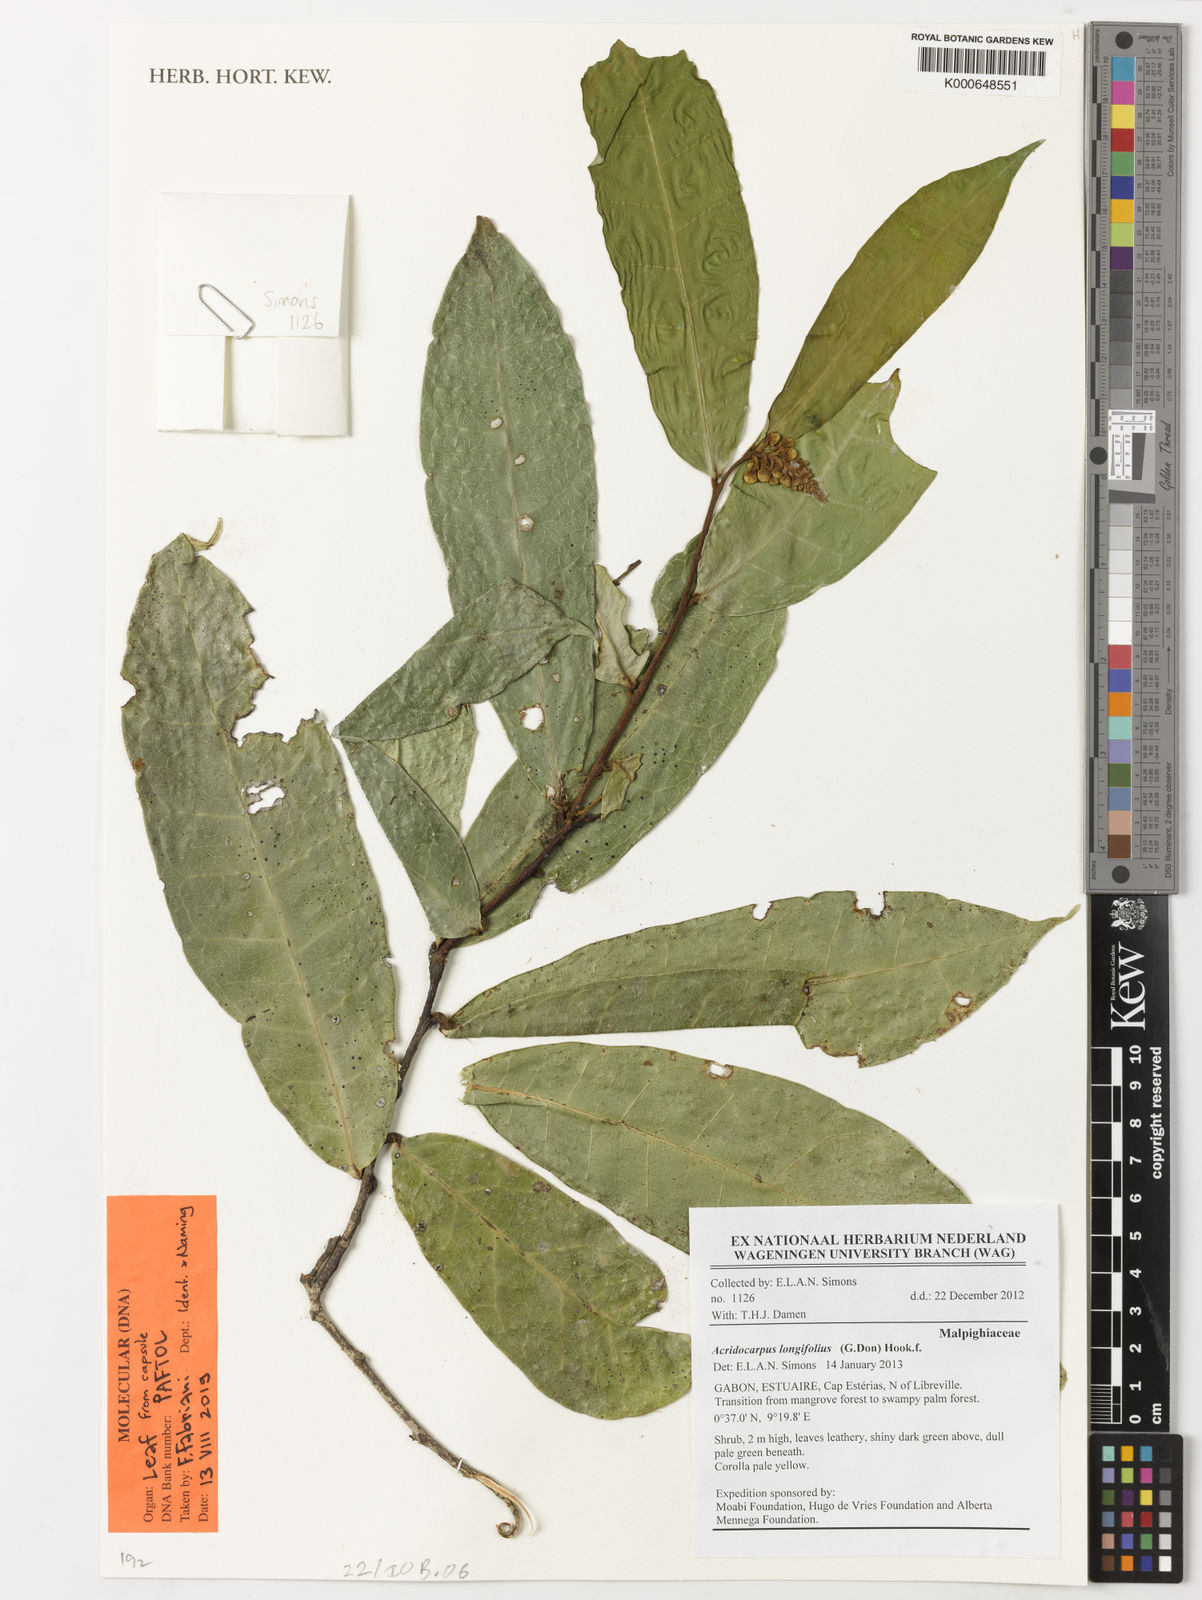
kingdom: Plantae
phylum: Tracheophyta
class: Magnoliopsida
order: Malpighiales
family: Malpighiaceae
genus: Acridocarpus
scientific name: Acridocarpus longifolius
